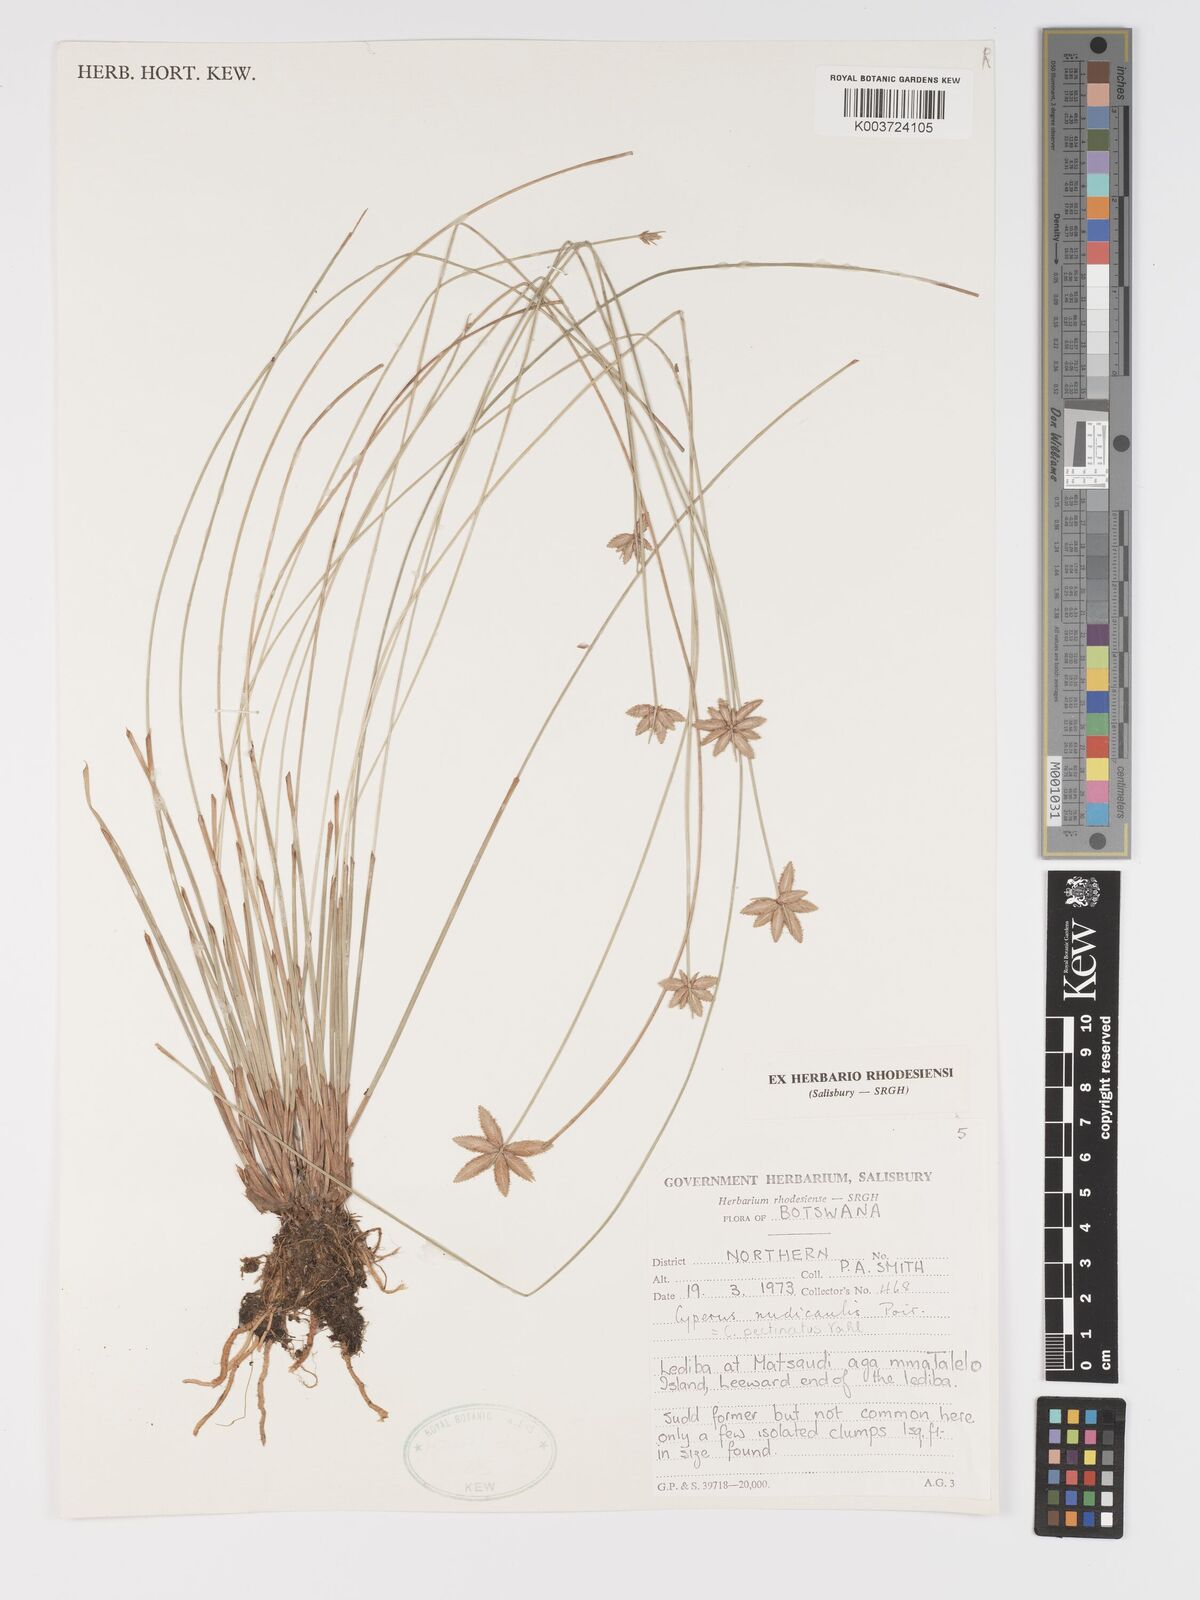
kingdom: Plantae
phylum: Tracheophyta
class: Liliopsida
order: Poales
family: Cyperaceae
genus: Cyperus
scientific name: Cyperus compressus
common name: Poorland flatsedge
